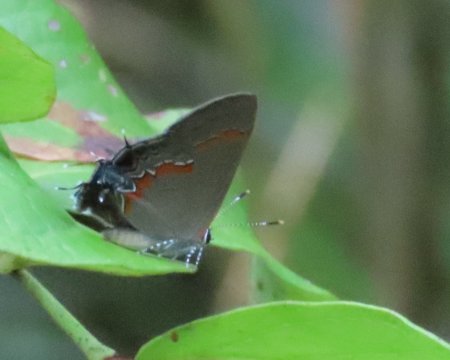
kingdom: Animalia
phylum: Arthropoda
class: Insecta
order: Lepidoptera
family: Lycaenidae
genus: Calycopis
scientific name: Calycopis cecrops
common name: Red-banded Hairstreak
